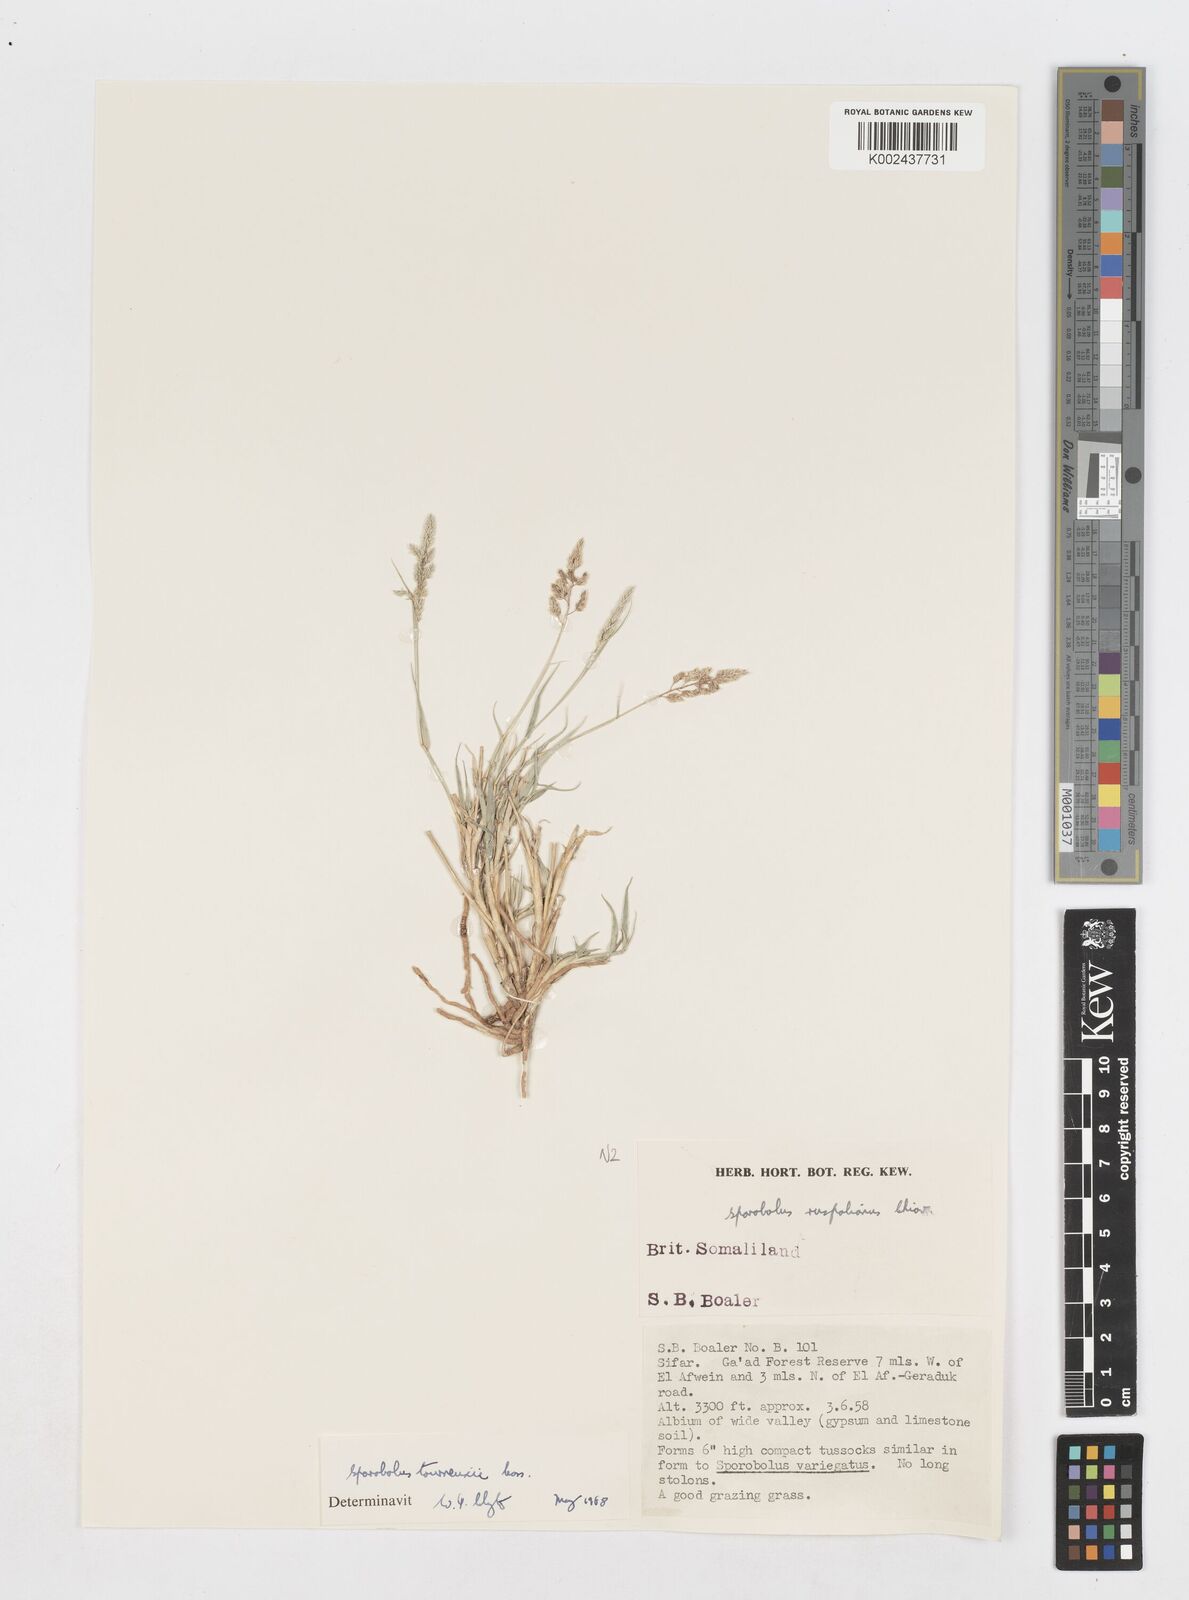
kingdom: Plantae
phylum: Tracheophyta
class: Liliopsida
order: Poales
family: Poaceae
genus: Sporobolus
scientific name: Sporobolus tourneuxii
